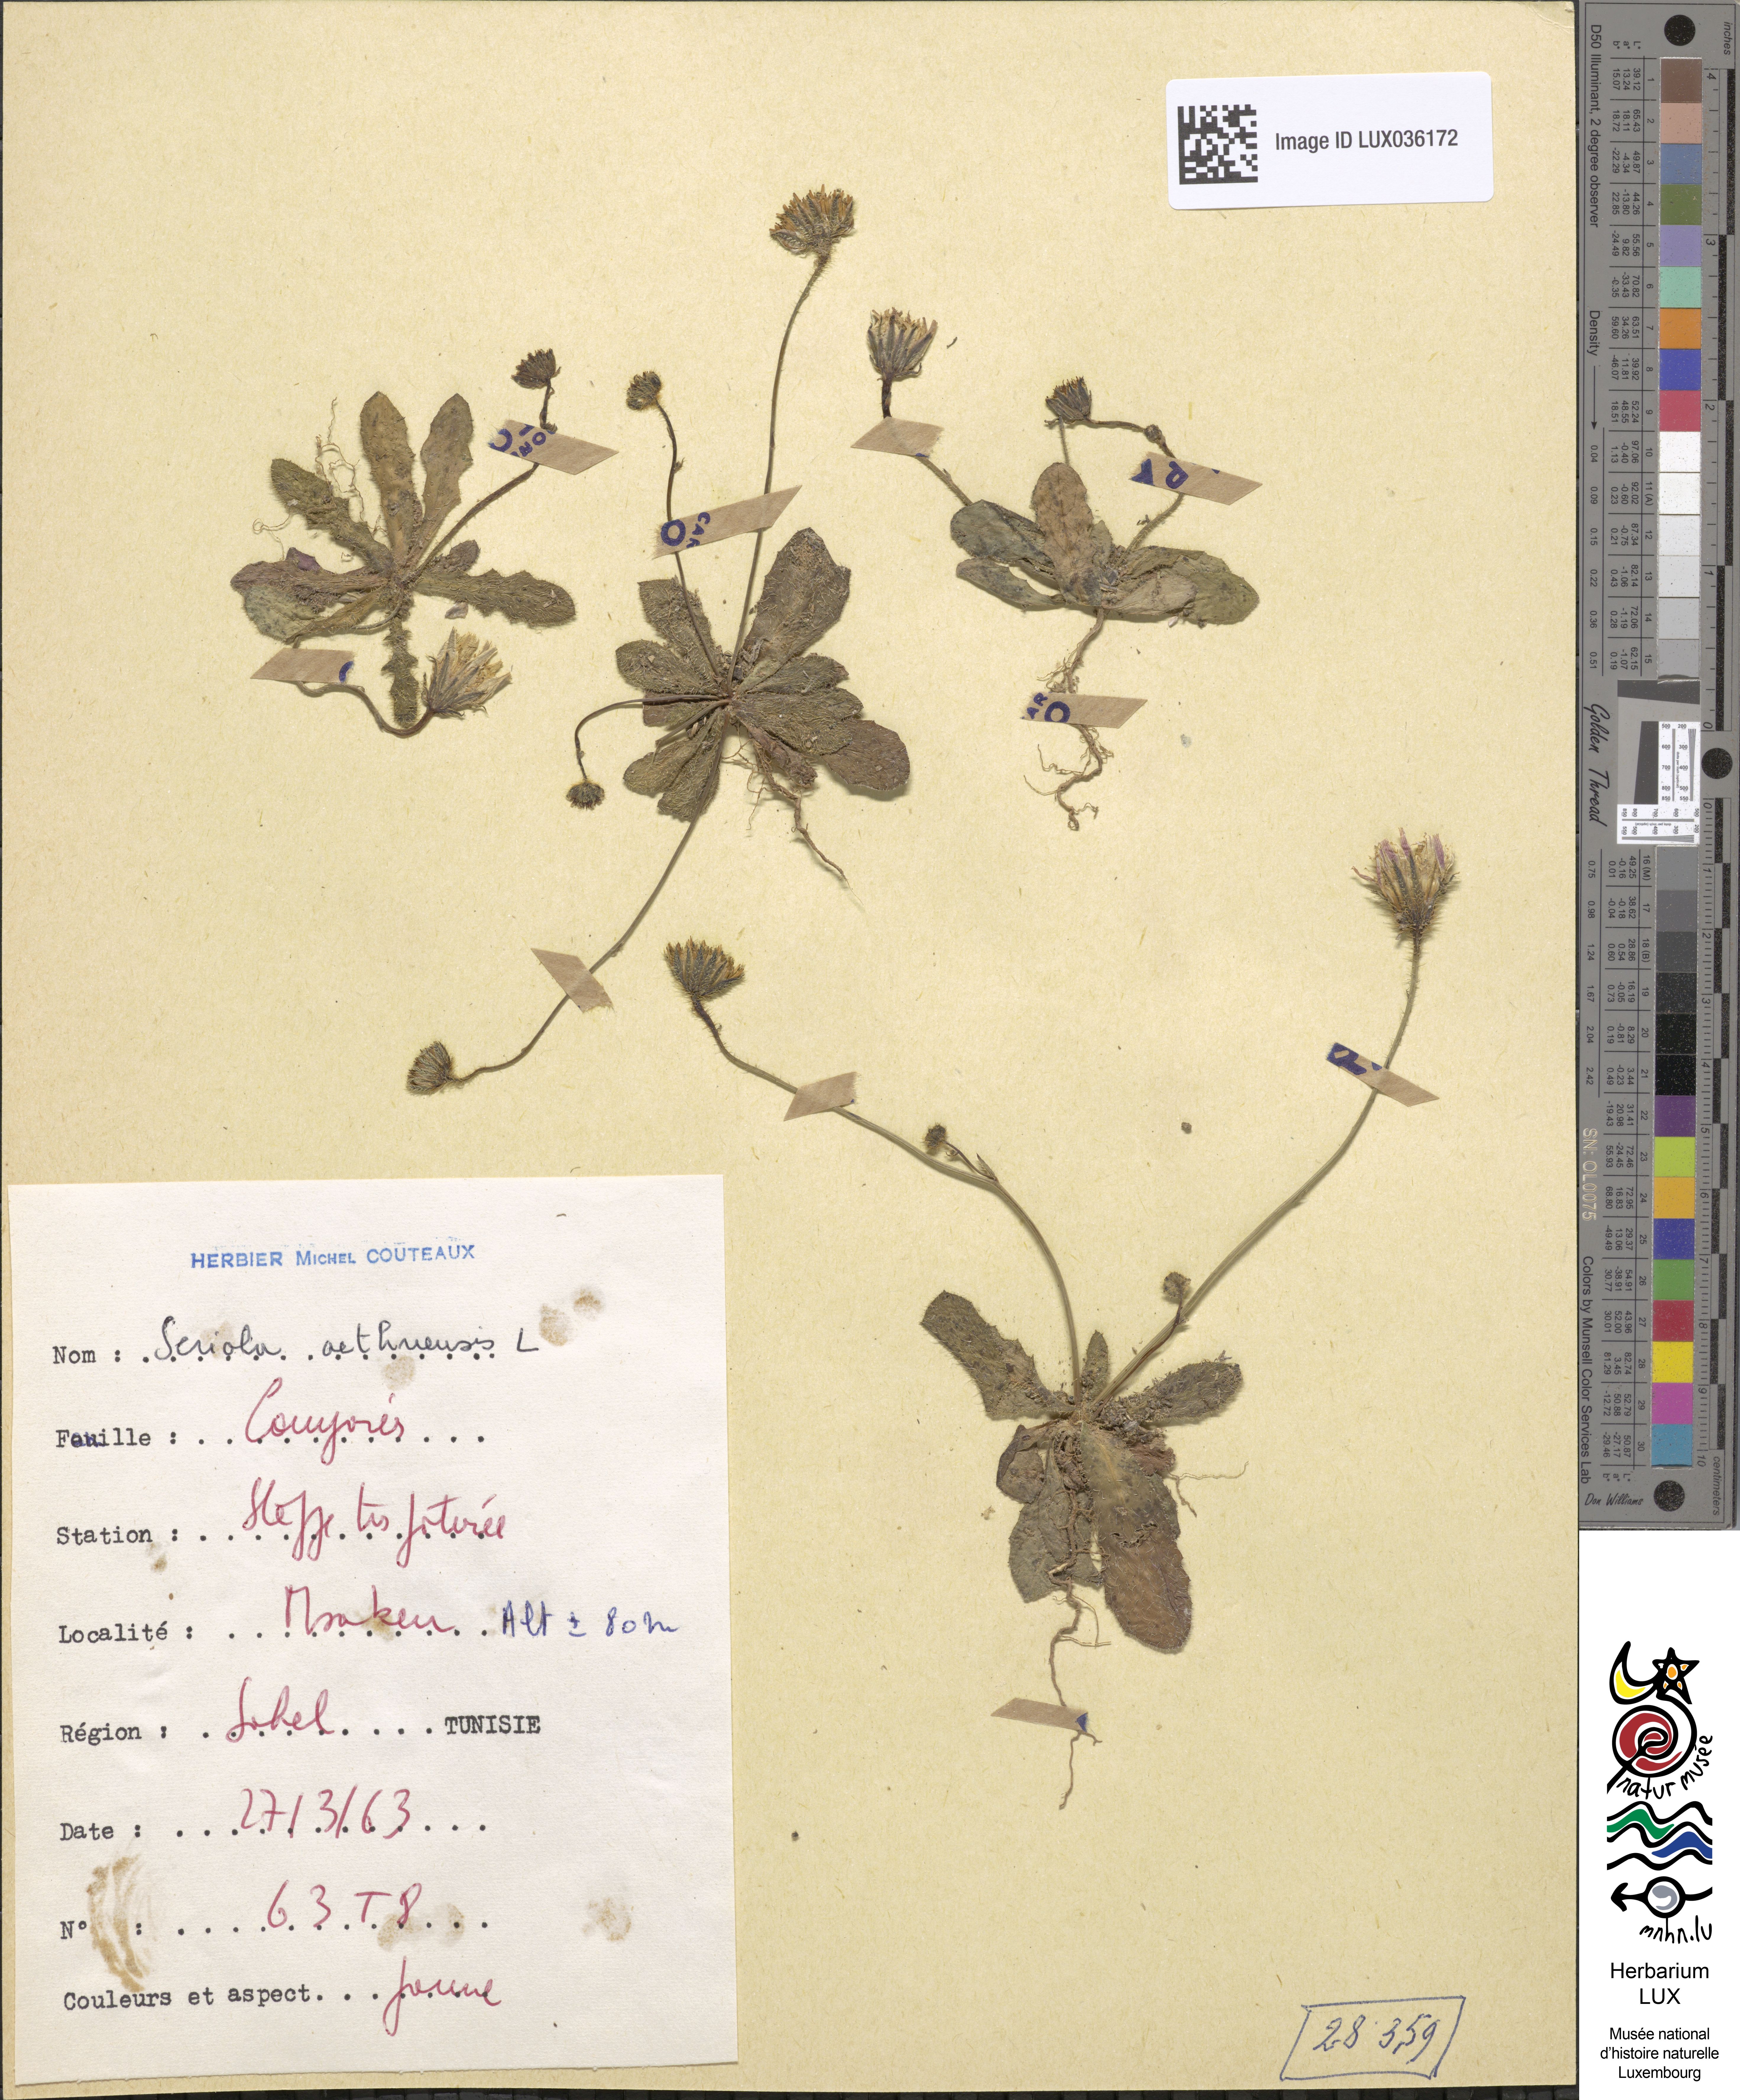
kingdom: Plantae
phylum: Tracheophyta
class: Magnoliopsida
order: Asterales
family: Asteraceae
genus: Hypochoeris
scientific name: Hypochoeris
